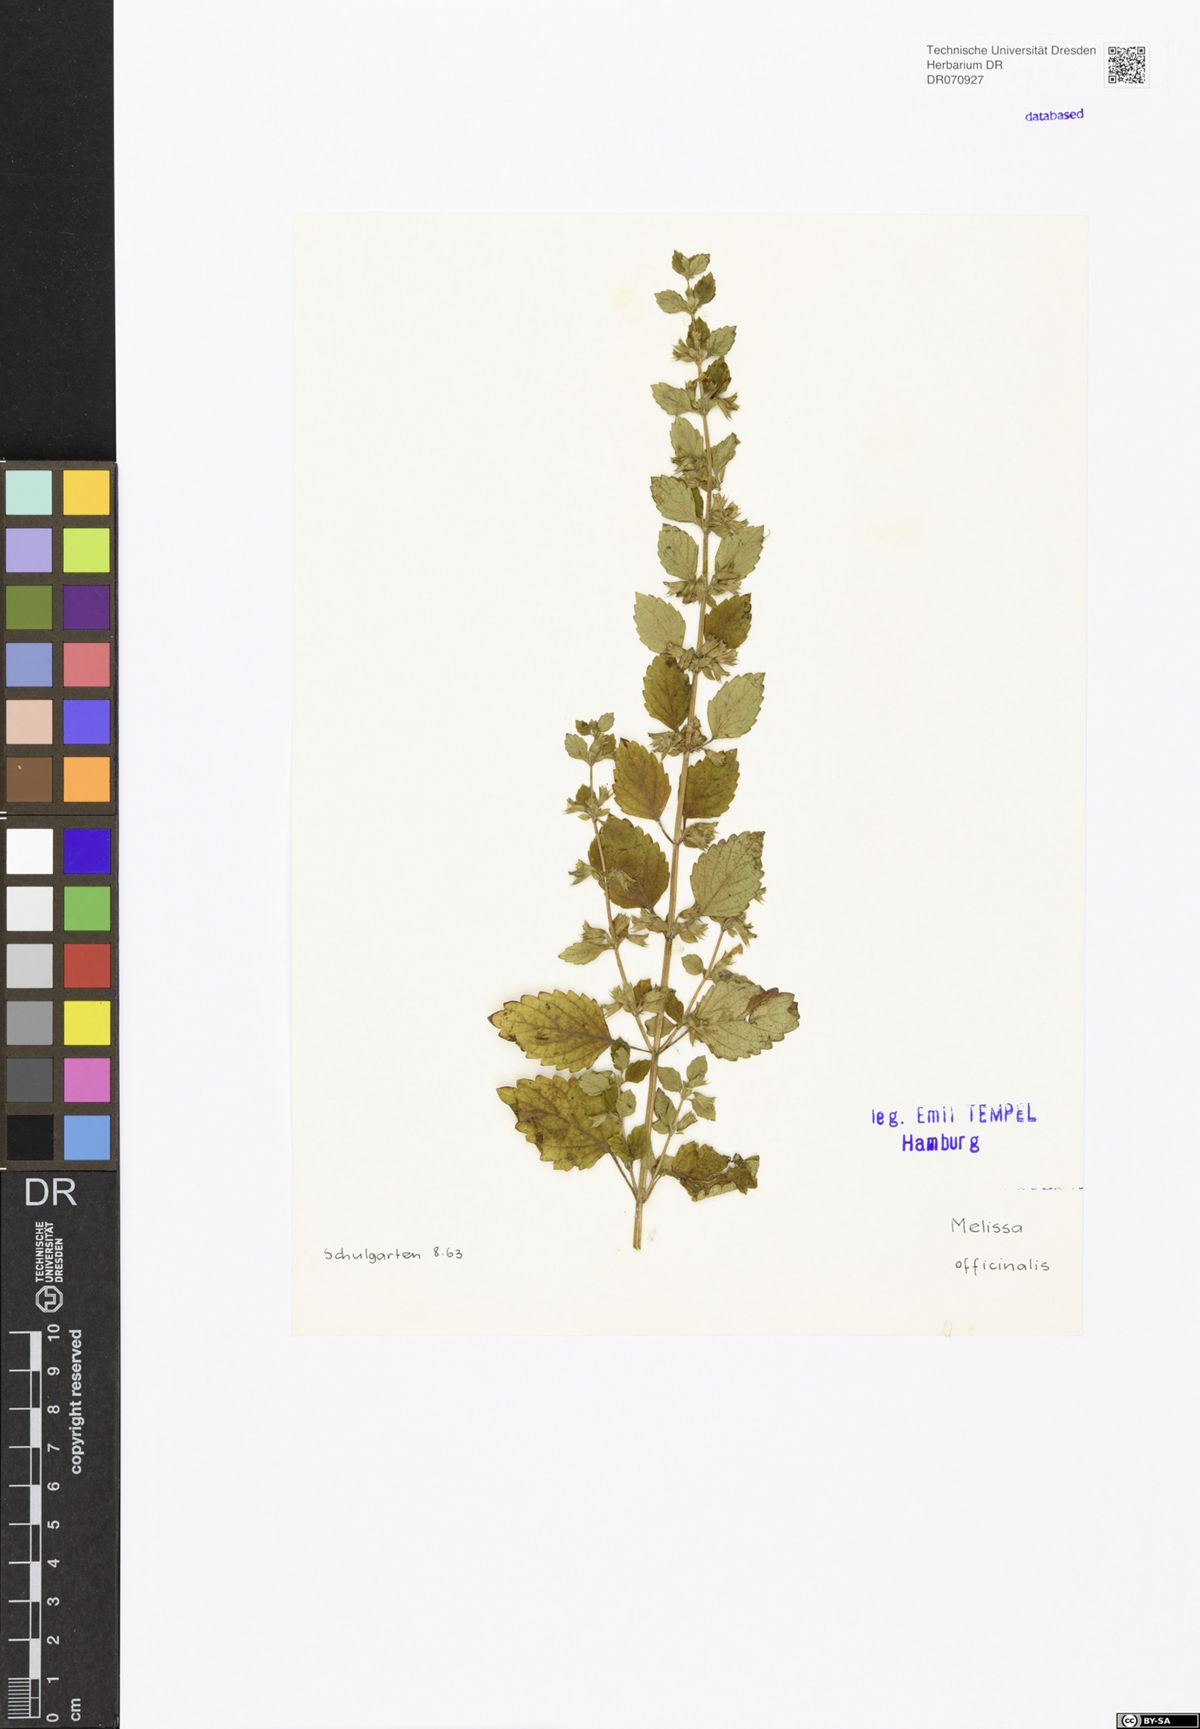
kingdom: Plantae
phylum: Tracheophyta
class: Magnoliopsida
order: Lamiales
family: Lamiaceae
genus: Melissa
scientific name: Melissa officinalis
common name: Balm
